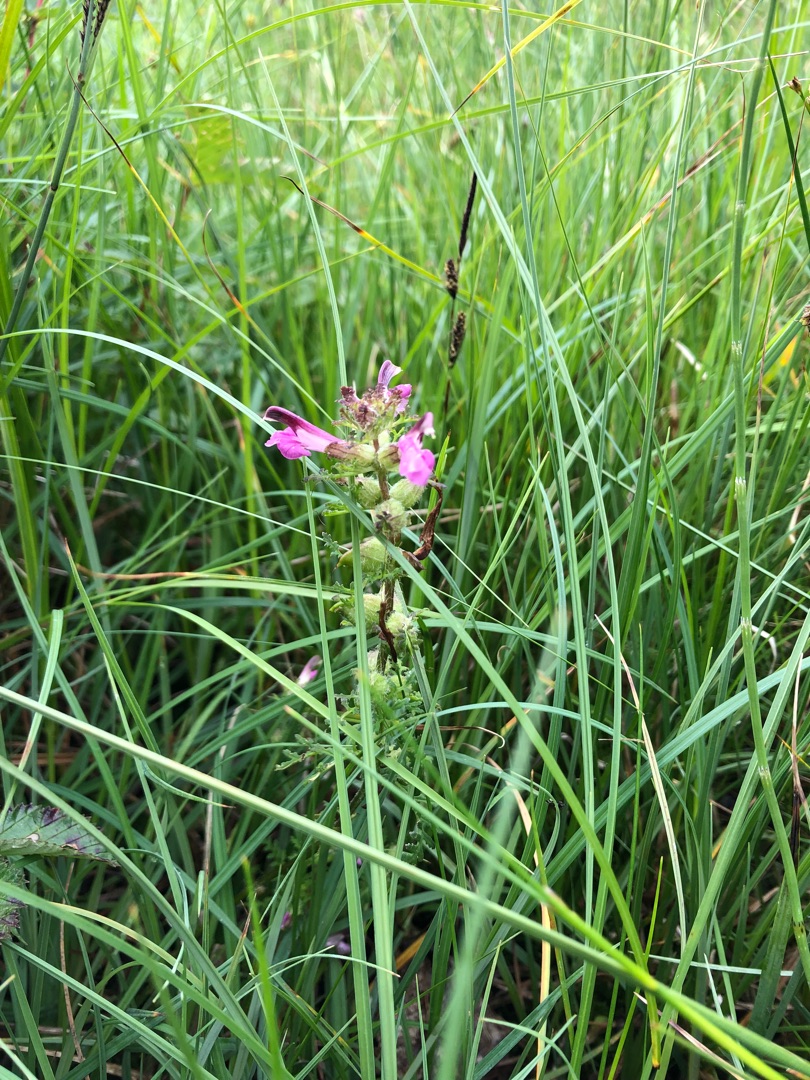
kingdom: Plantae
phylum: Tracheophyta
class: Magnoliopsida
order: Lamiales
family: Orobanchaceae
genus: Pedicularis
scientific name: Pedicularis palustris
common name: Eng-troldurt
